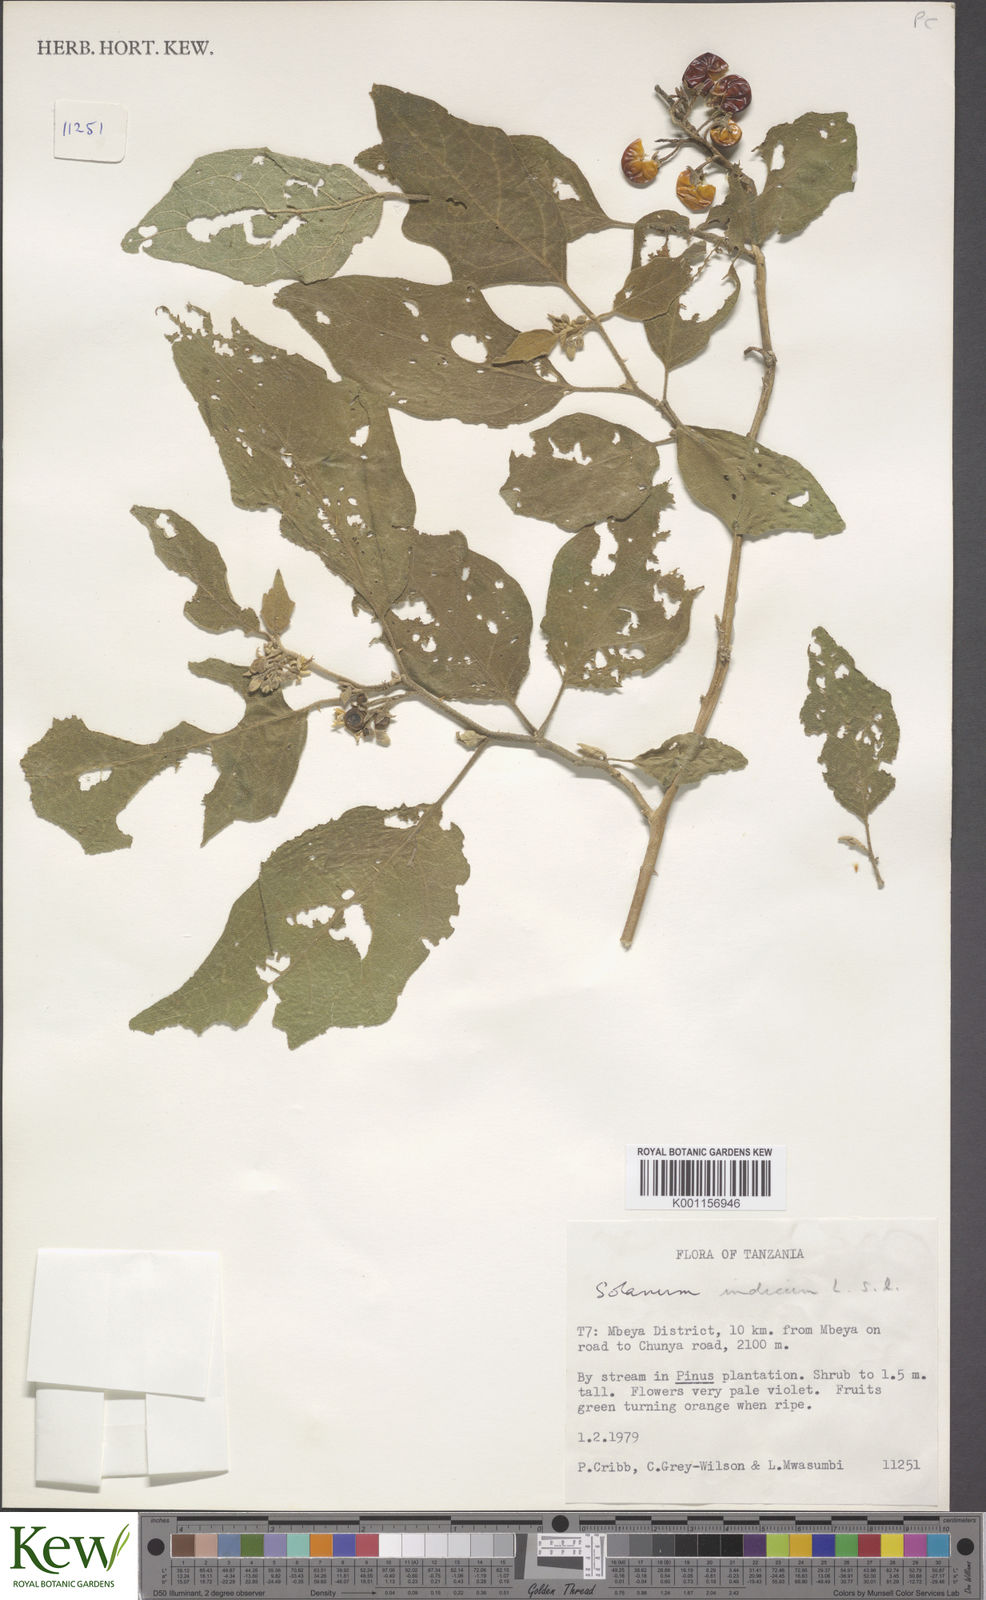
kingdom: Plantae
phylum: Tracheophyta
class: Magnoliopsida
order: Solanales
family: Solanaceae
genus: Solanum
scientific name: Solanum anguivi
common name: Forest bitterberry
